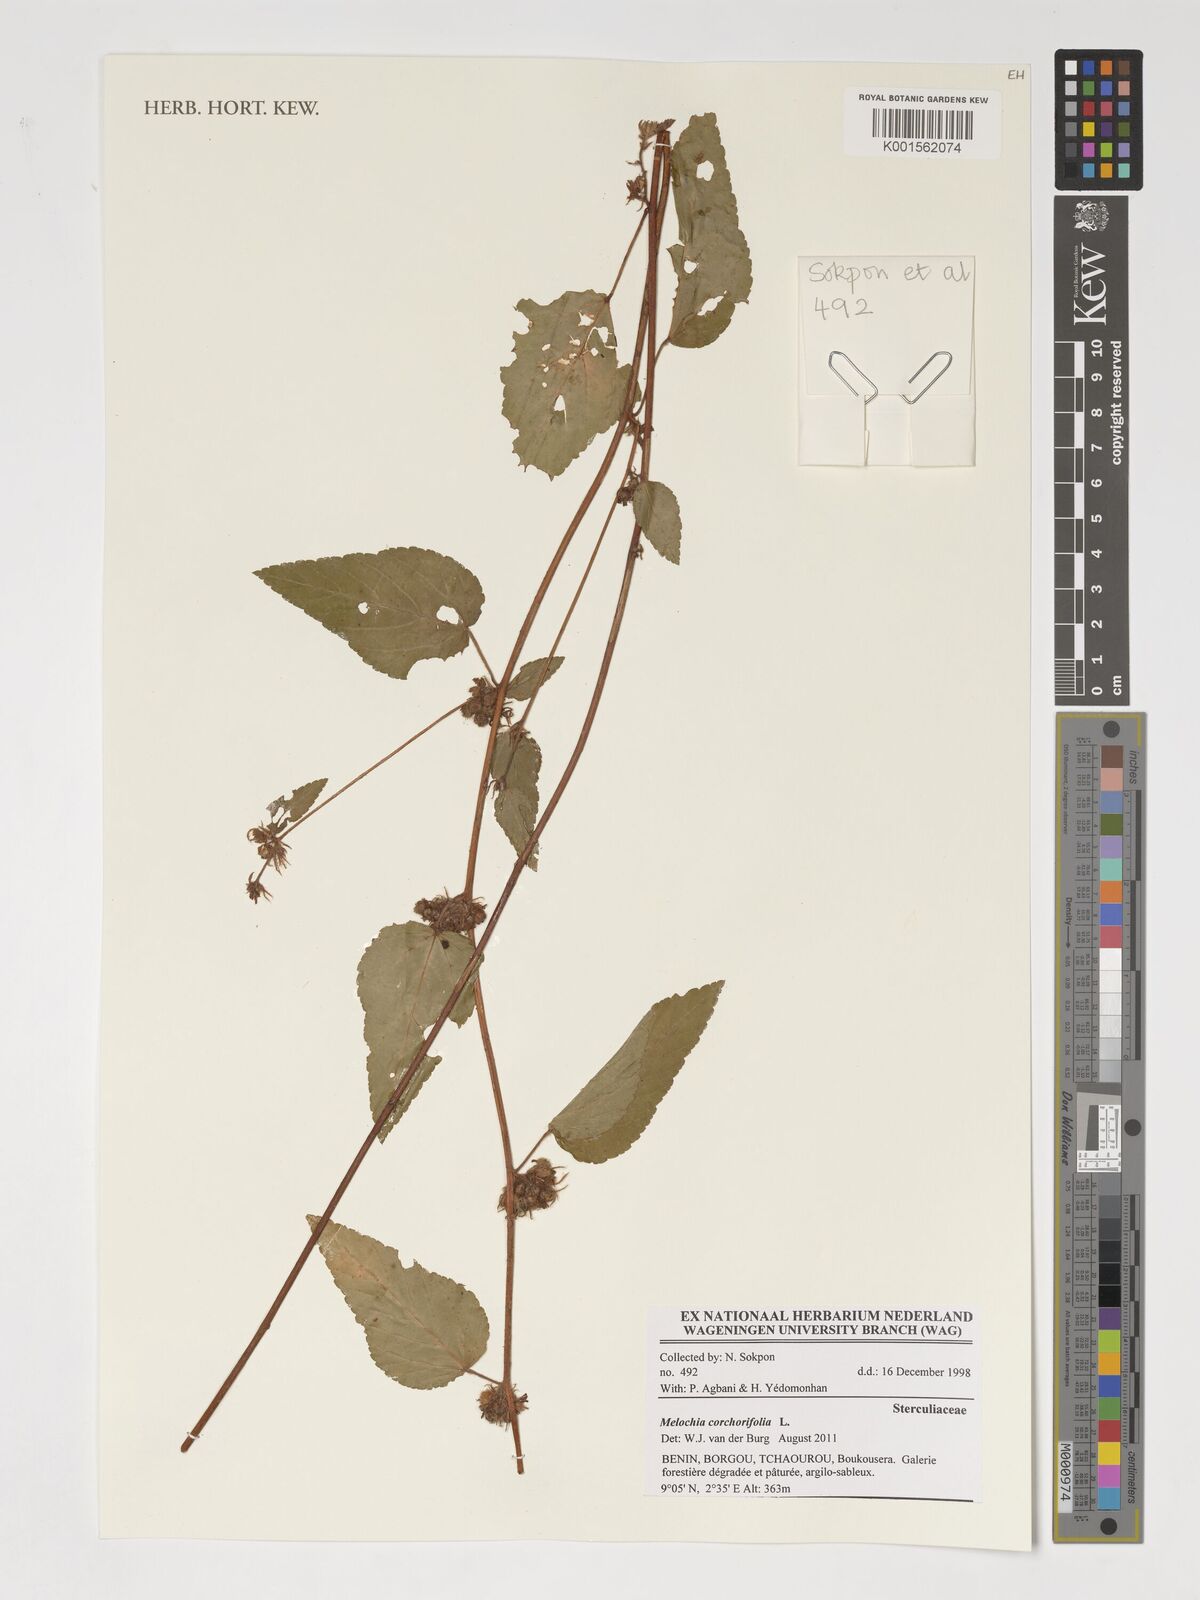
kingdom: Plantae
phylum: Tracheophyta
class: Magnoliopsida
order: Malvales
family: Malvaceae
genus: Melochia
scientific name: Melochia corchorifolia
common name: Chocolateweed
